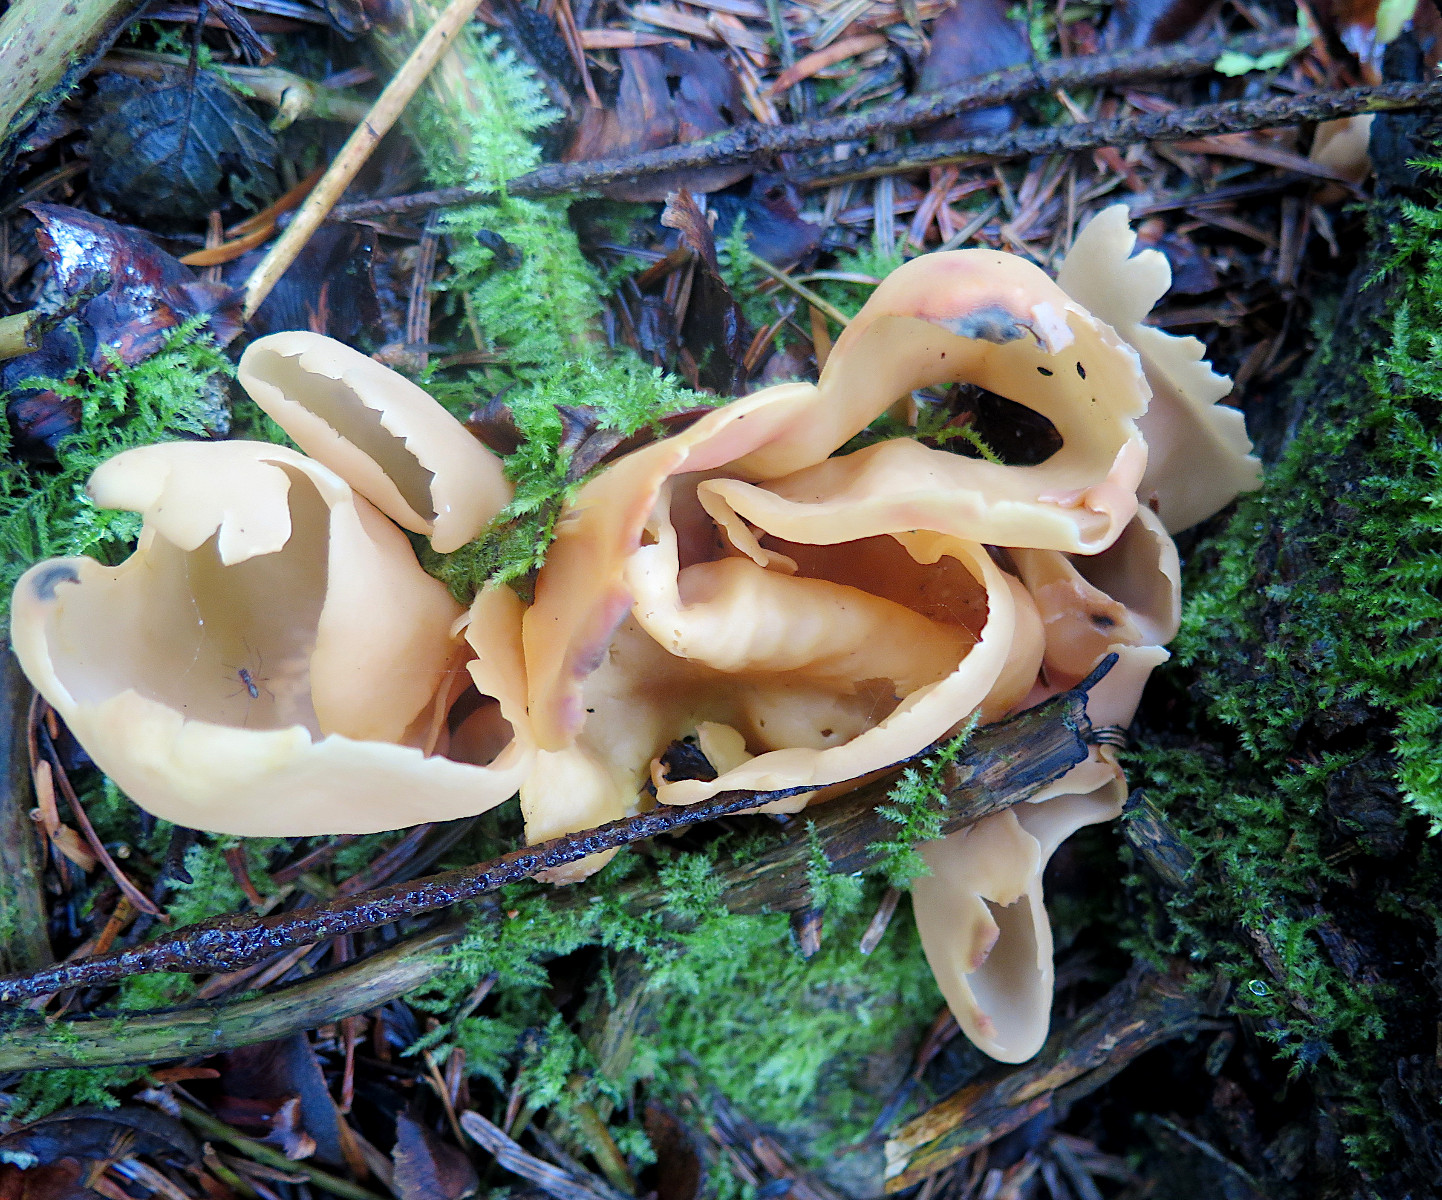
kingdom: Fungi
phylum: Ascomycota
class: Pezizomycetes
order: Pezizales
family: Otideaceae
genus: Otidea
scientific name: Otidea onotica
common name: æsel-ørebæger
